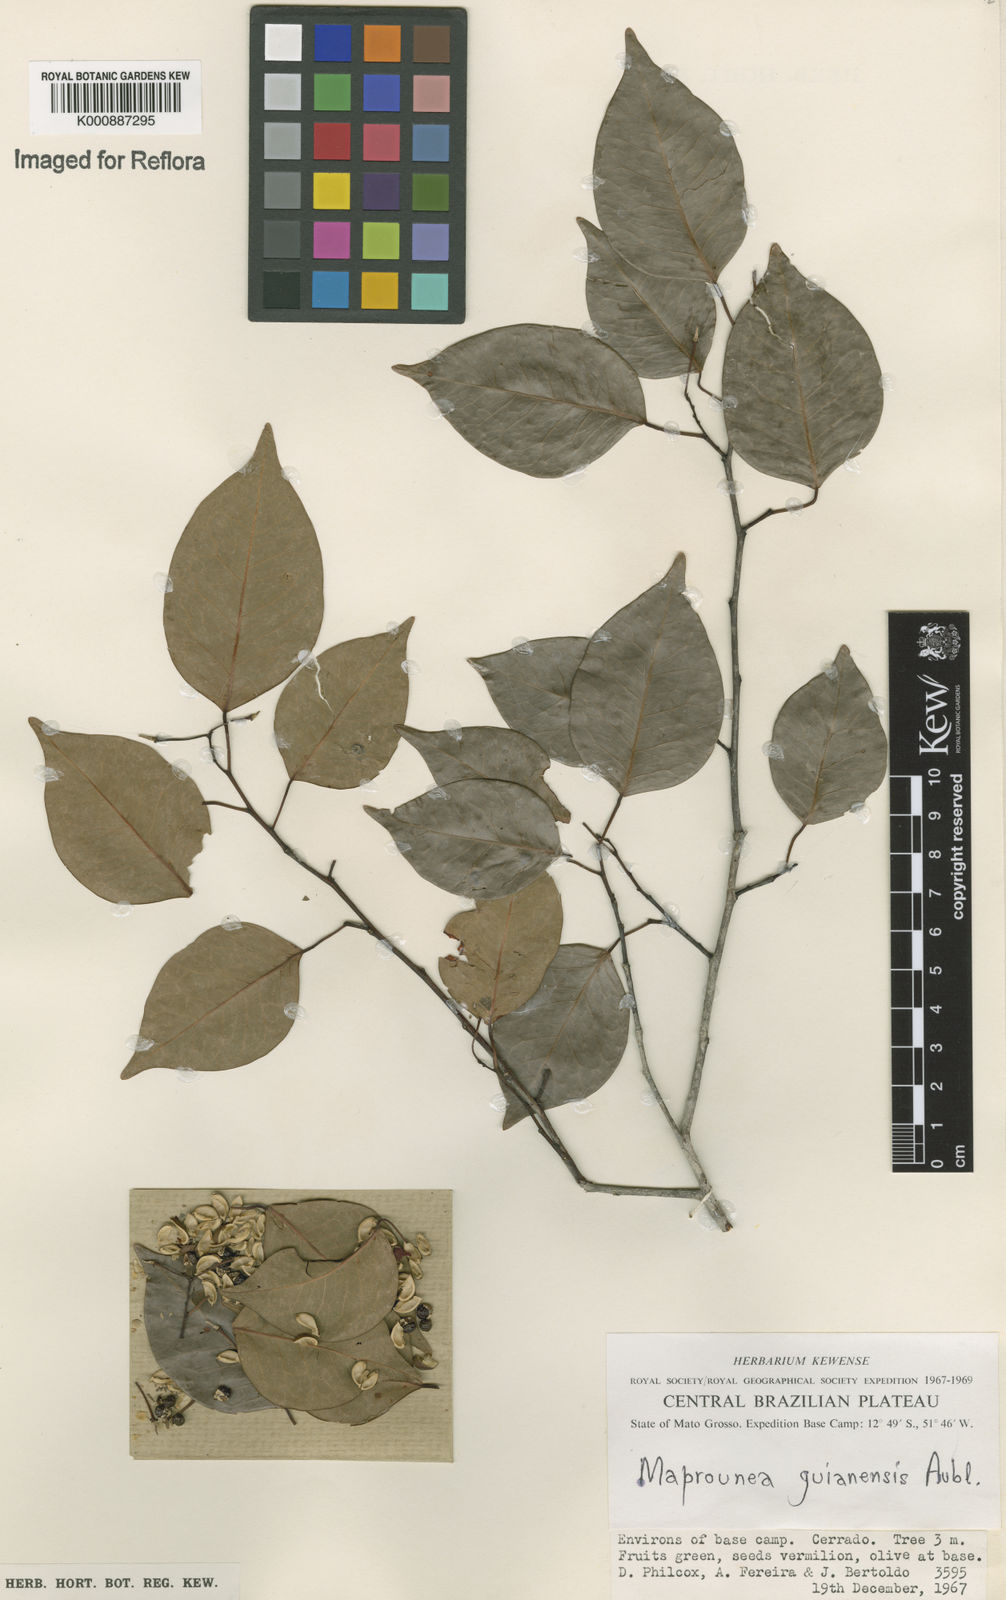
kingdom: Plantae
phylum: Tracheophyta
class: Magnoliopsida
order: Malpighiales
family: Euphorbiaceae
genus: Maprounea
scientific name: Maprounea guianensis
